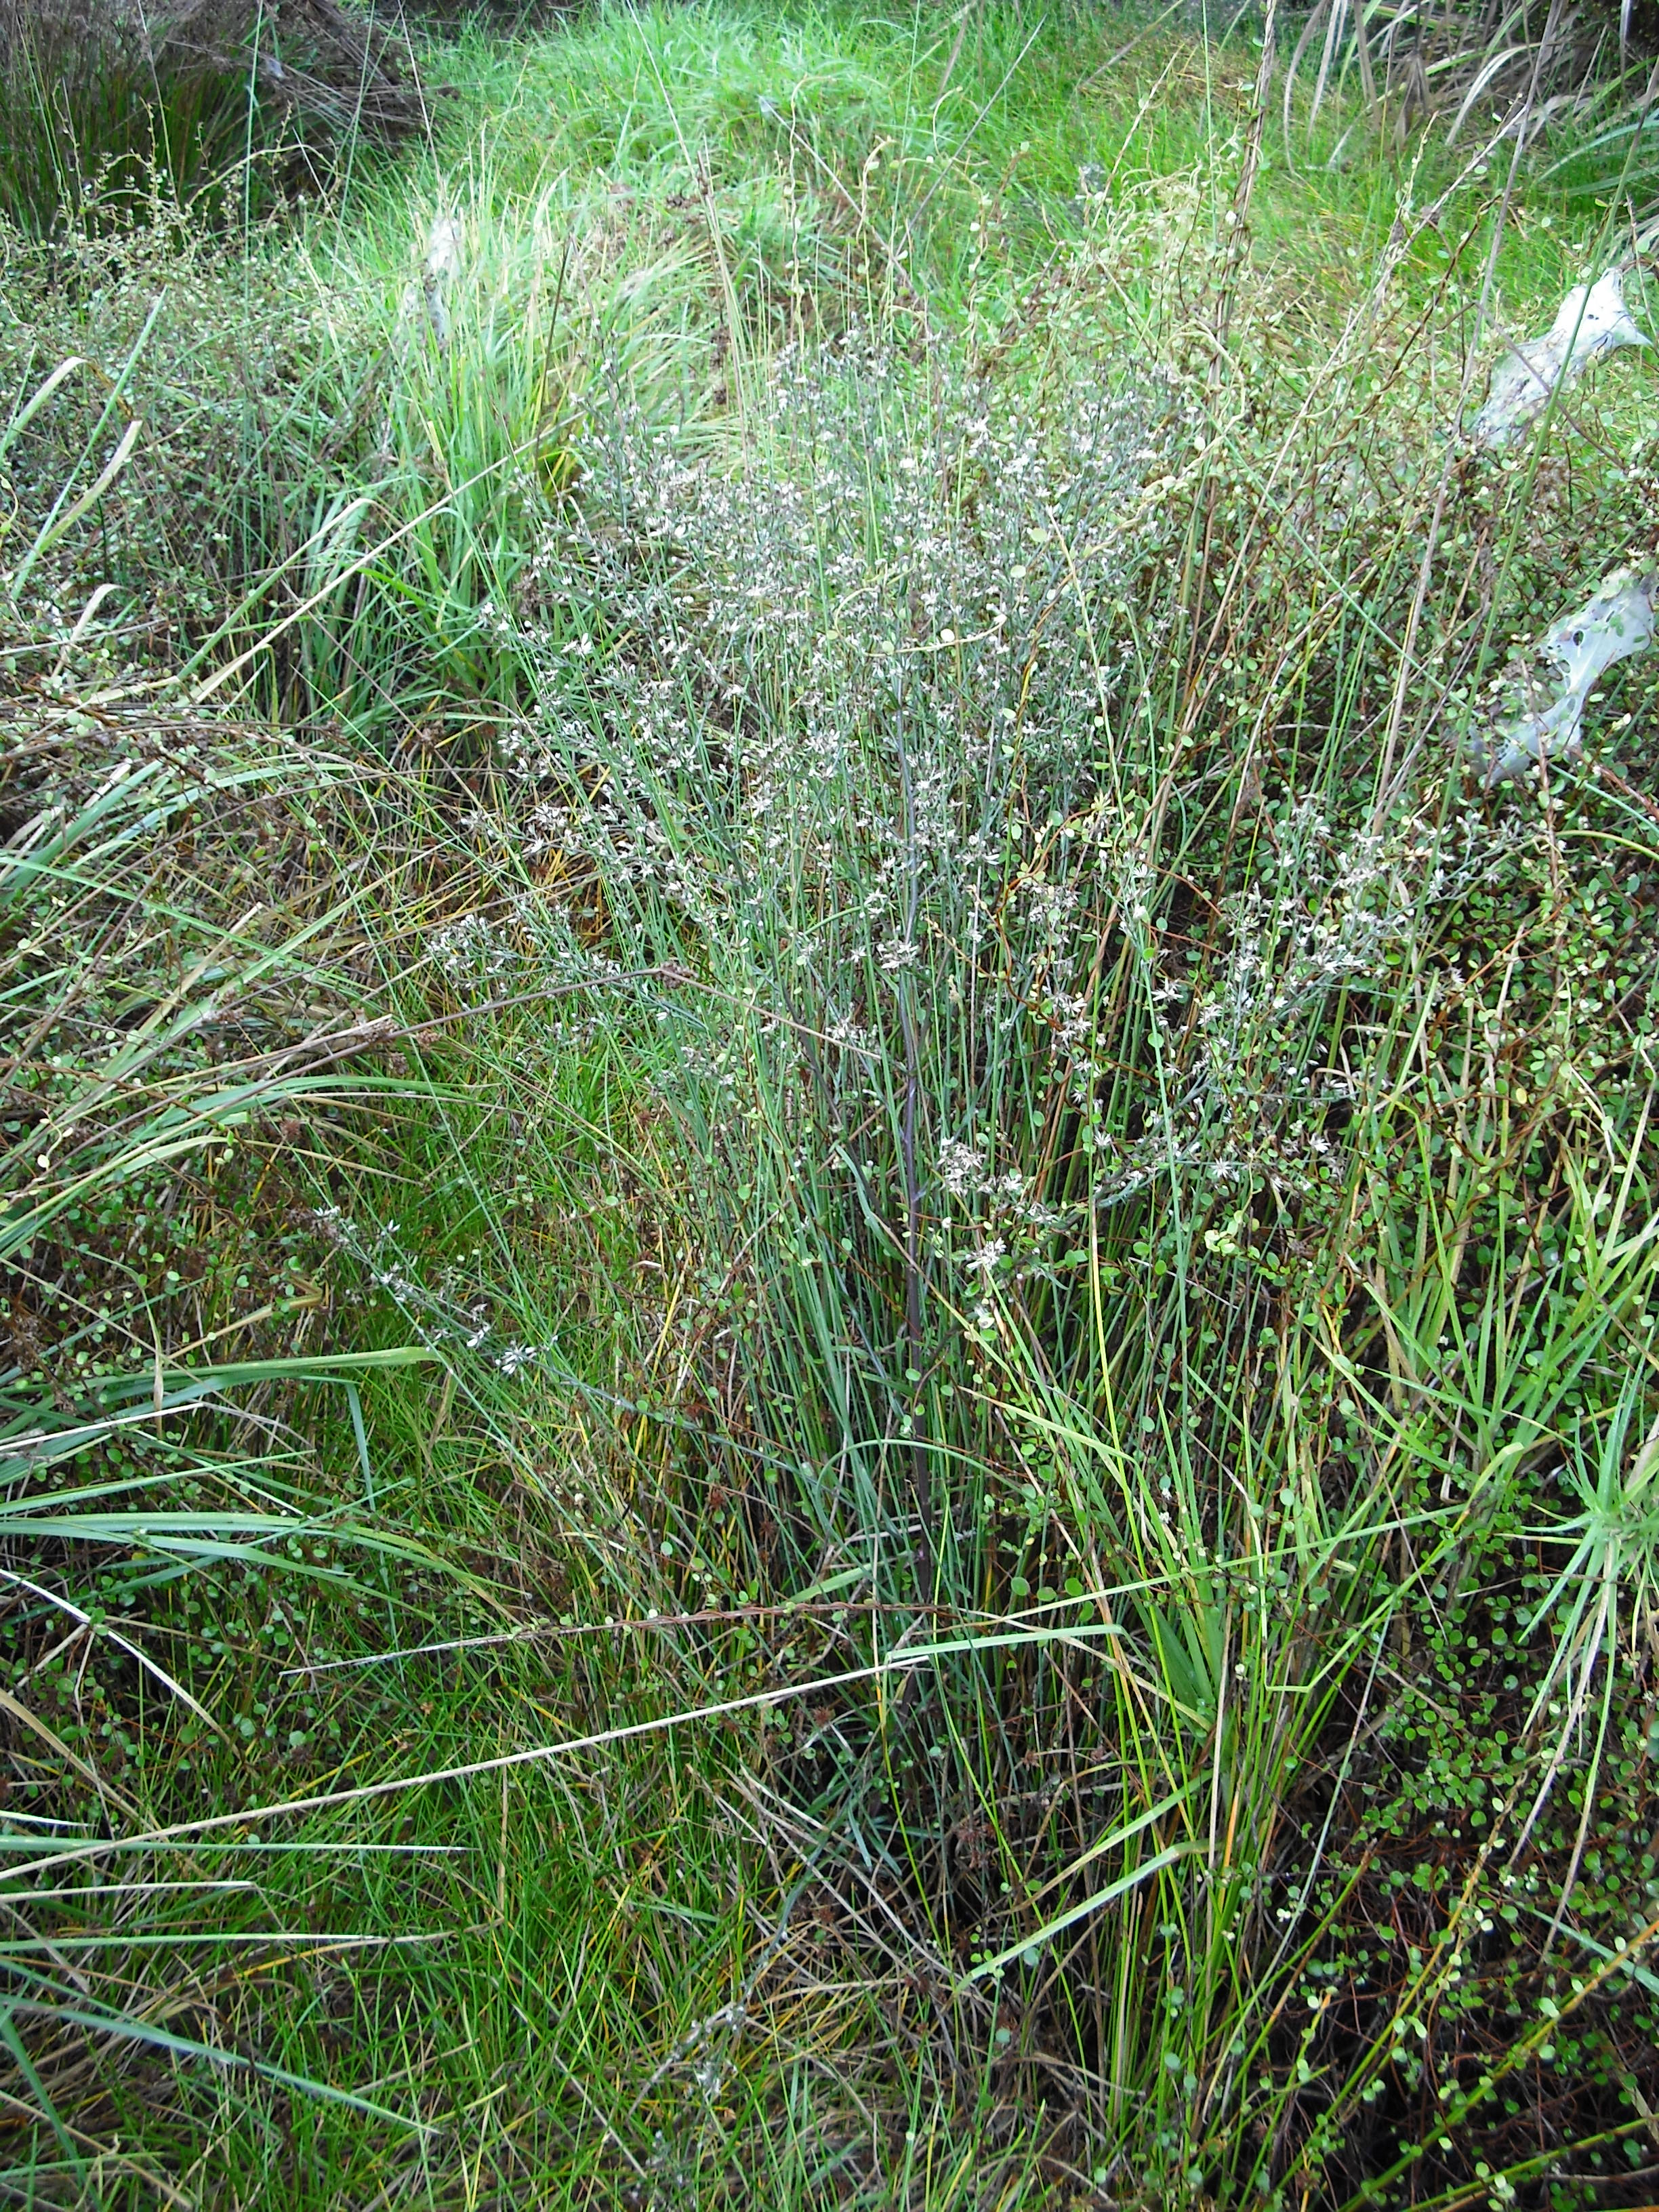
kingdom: Plantae
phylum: Tracheophyta
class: Magnoliopsida
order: Asterales
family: Asteraceae
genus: Symphyotrichum
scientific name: Symphyotrichum subulatum
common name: Annual saltmarsh aster
